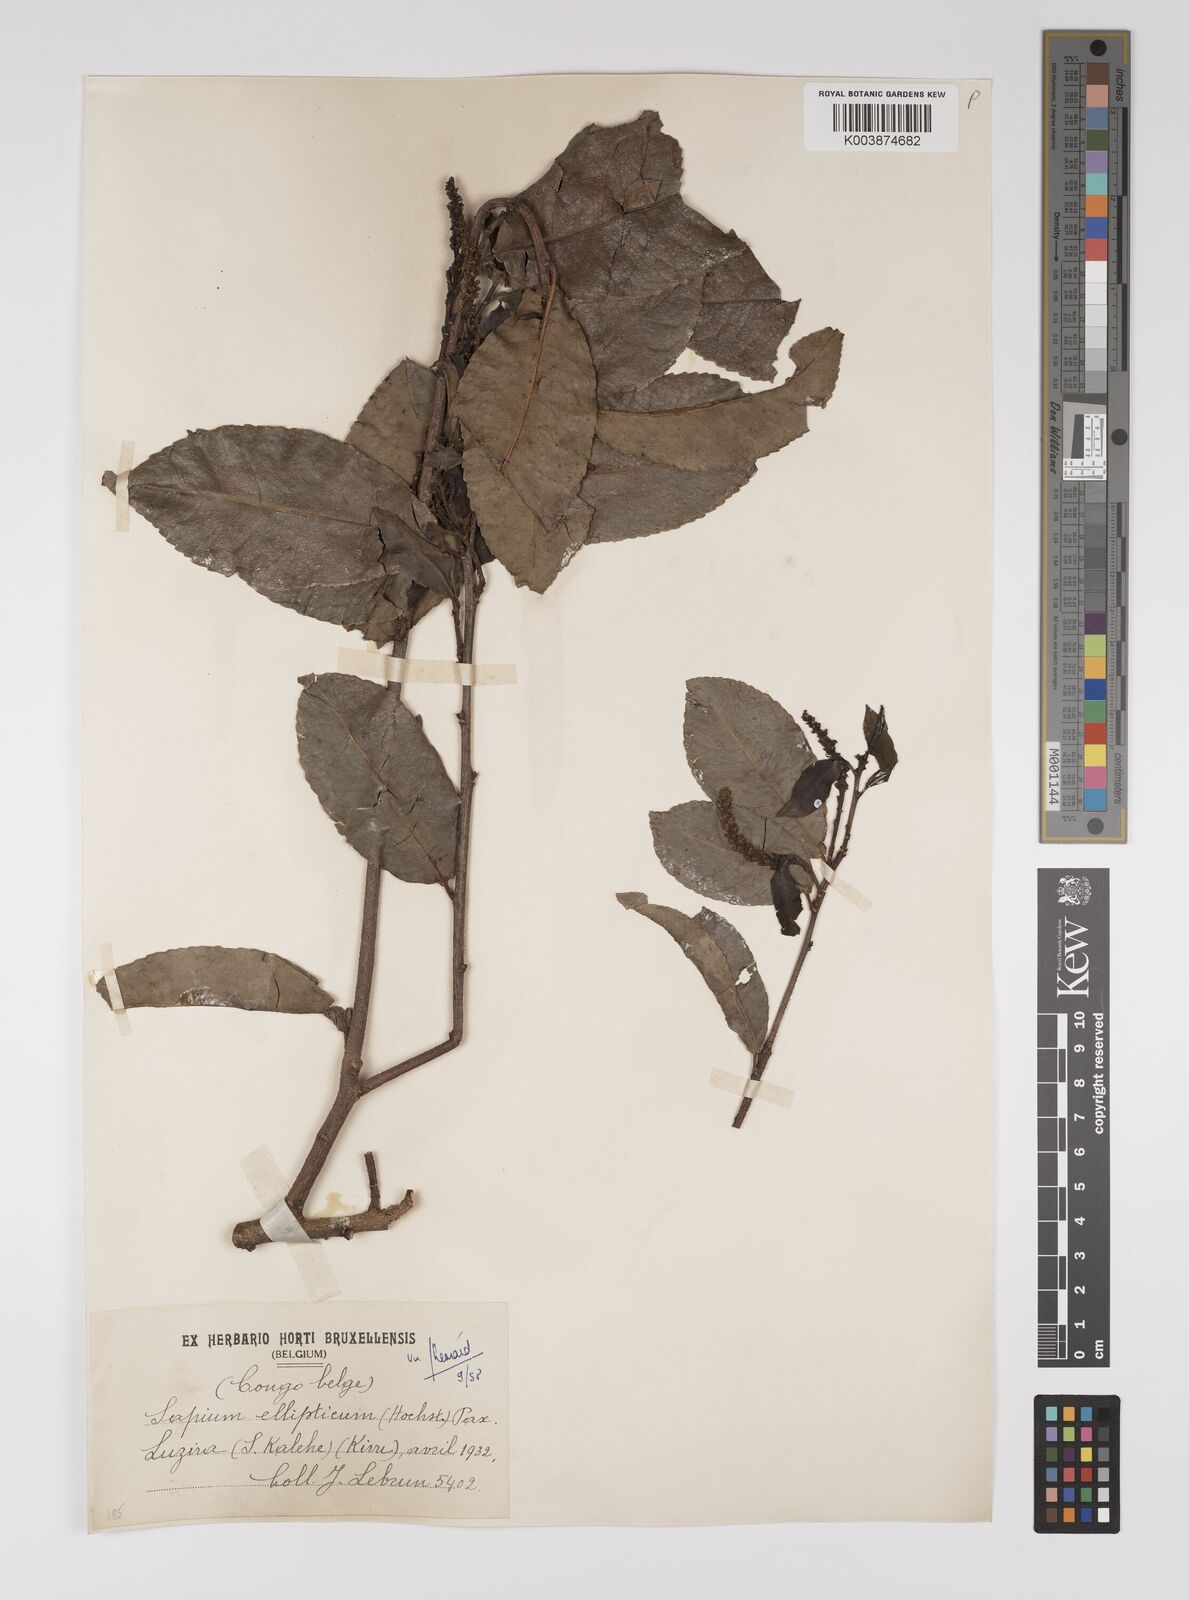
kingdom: Plantae
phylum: Tracheophyta
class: Magnoliopsida
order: Malpighiales
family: Euphorbiaceae
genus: Shirakiopsis
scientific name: Shirakiopsis elliptica
